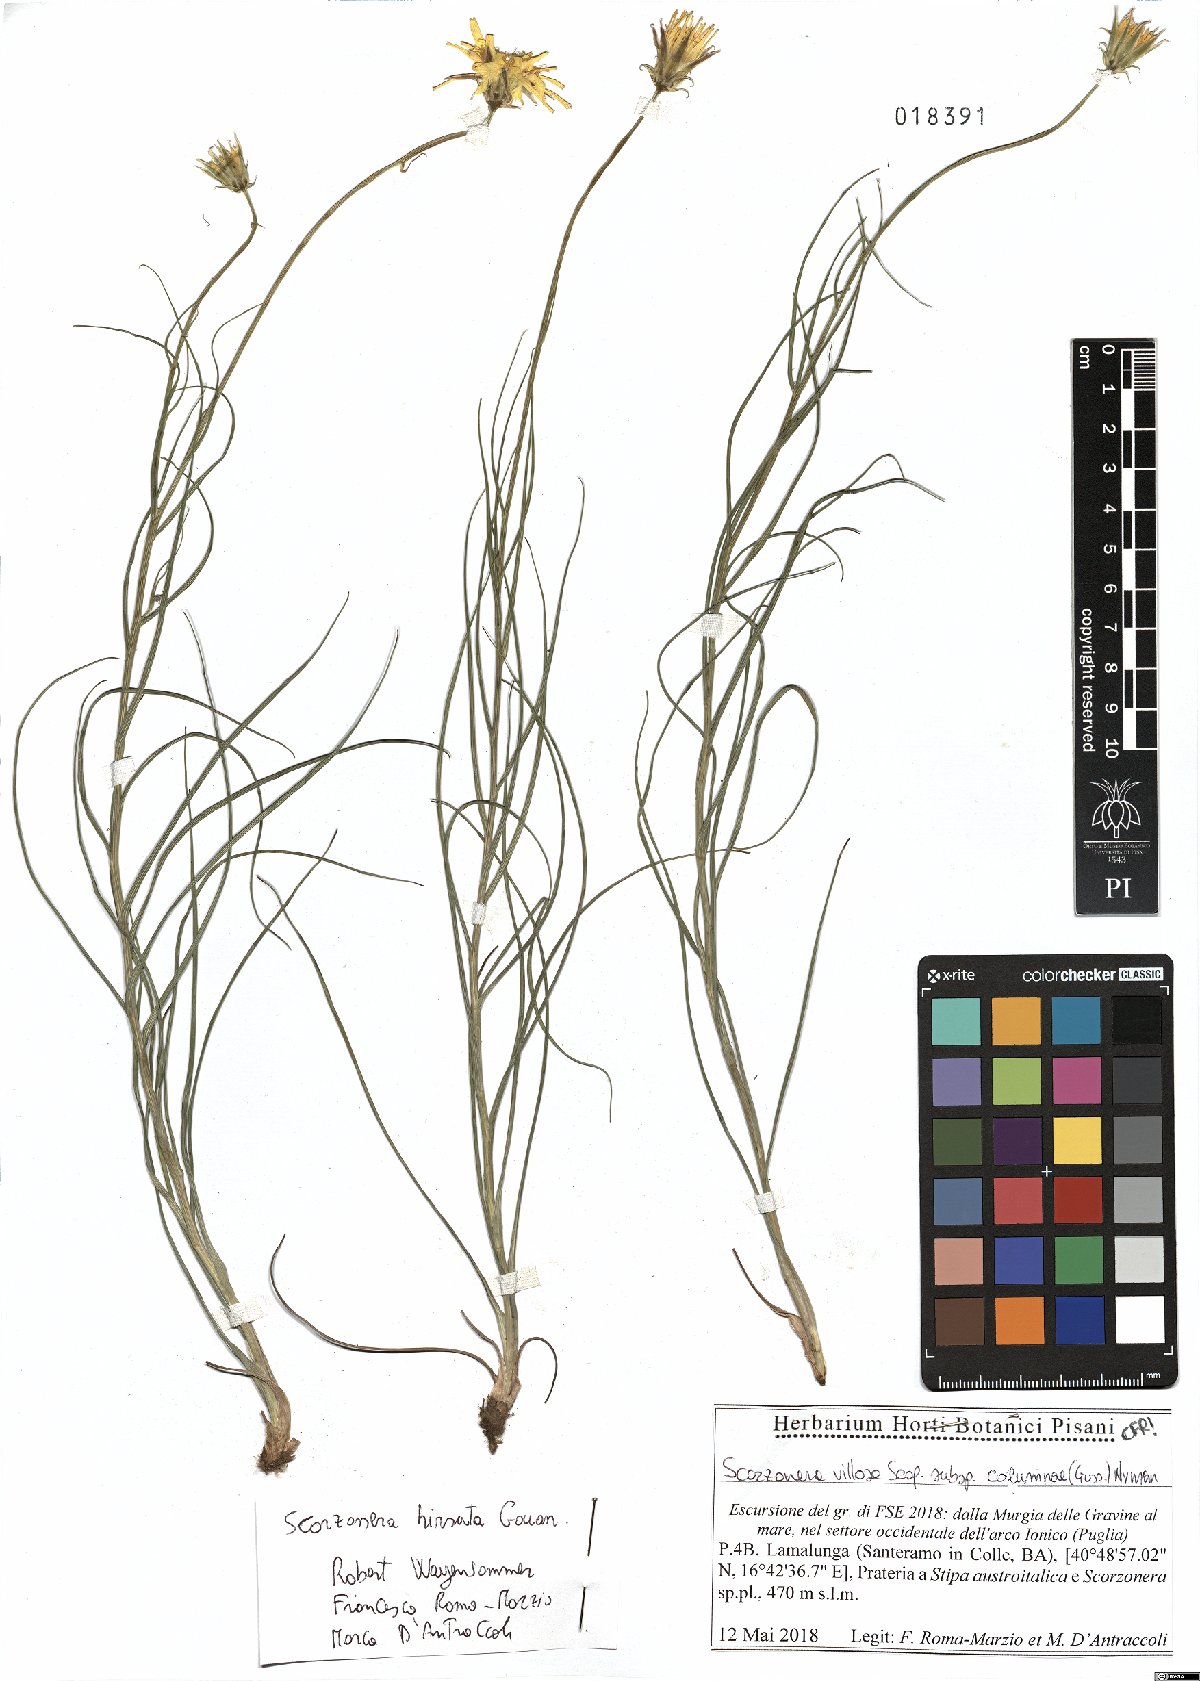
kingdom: Plantae
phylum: Tracheophyta
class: Magnoliopsida
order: Asterales
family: Asteraceae
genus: Gelasia
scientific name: Gelasia hirsuta
